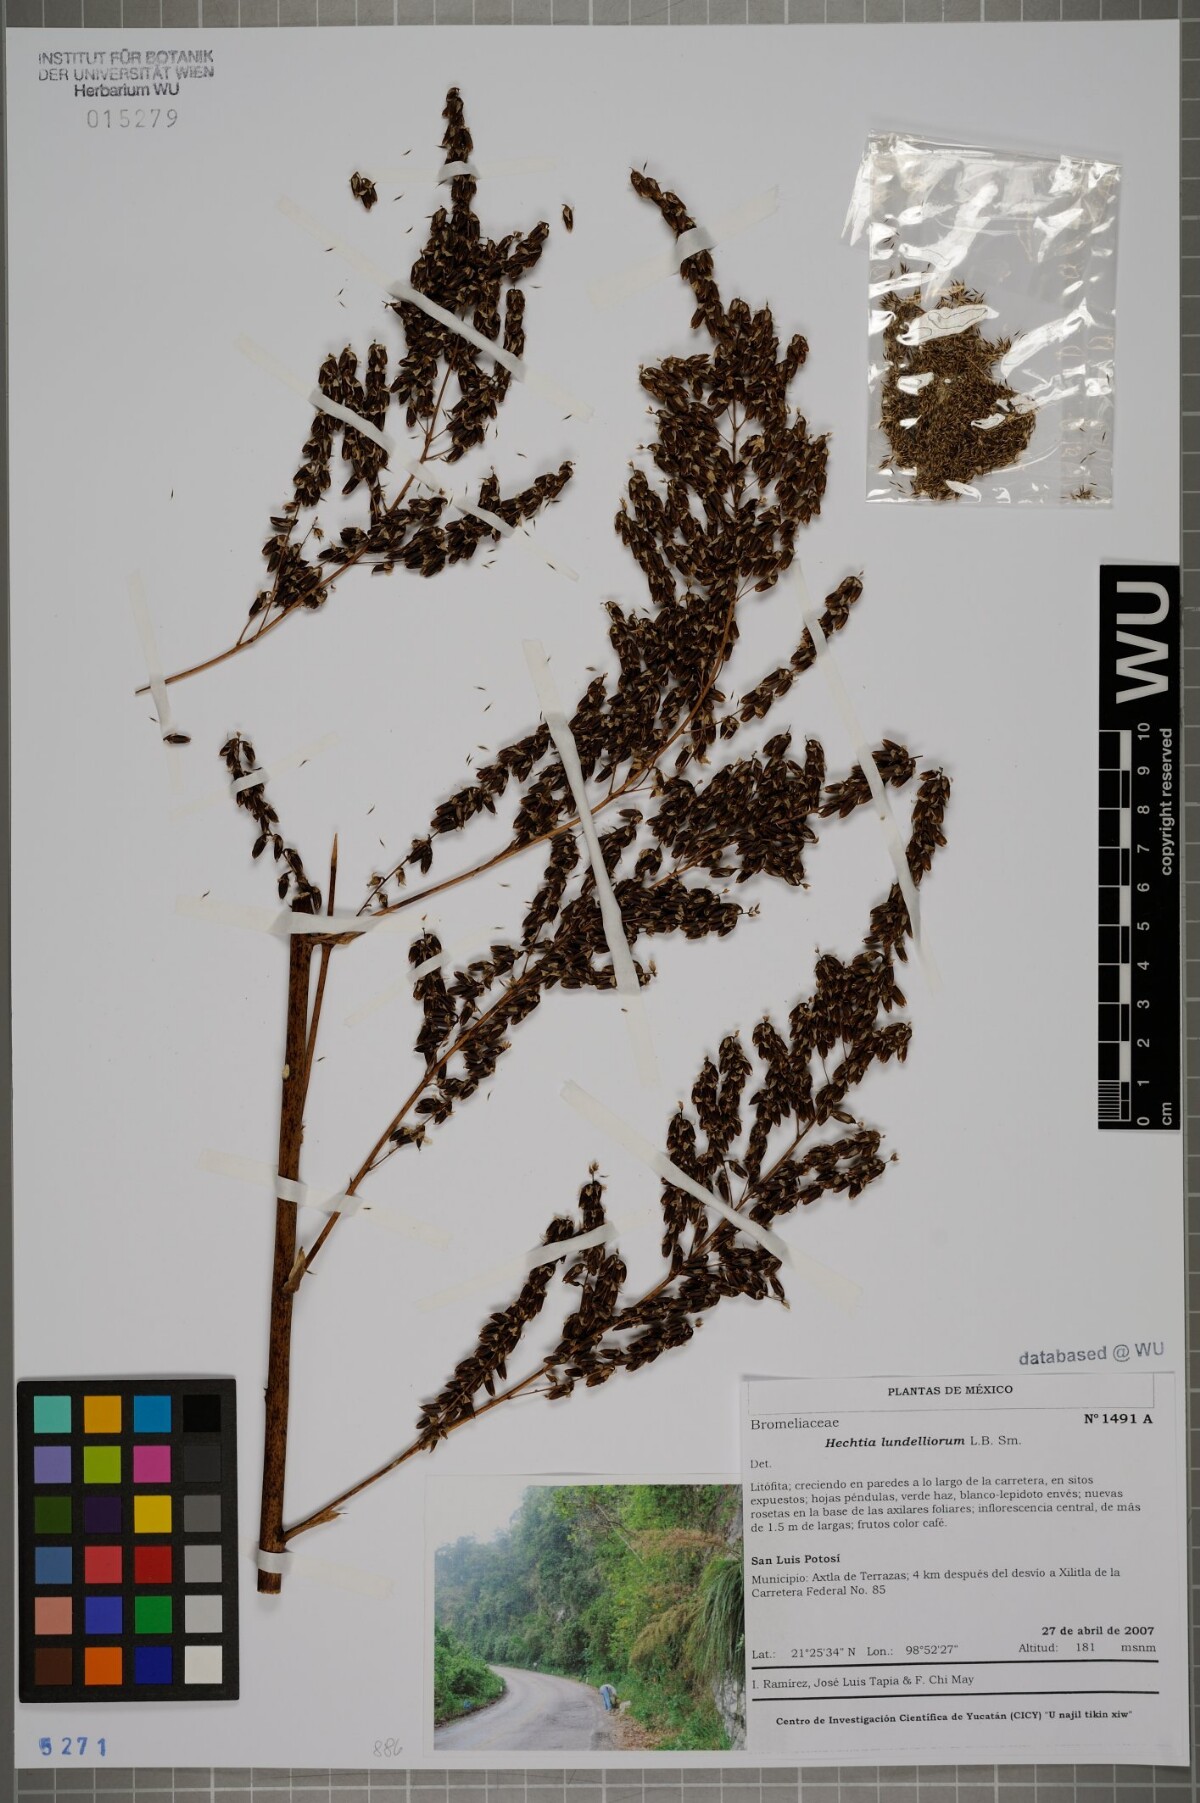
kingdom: Plantae
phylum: Tracheophyta
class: Liliopsida
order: Poales
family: Bromeliaceae
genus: Hechtia
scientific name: Hechtia lundelliorum
